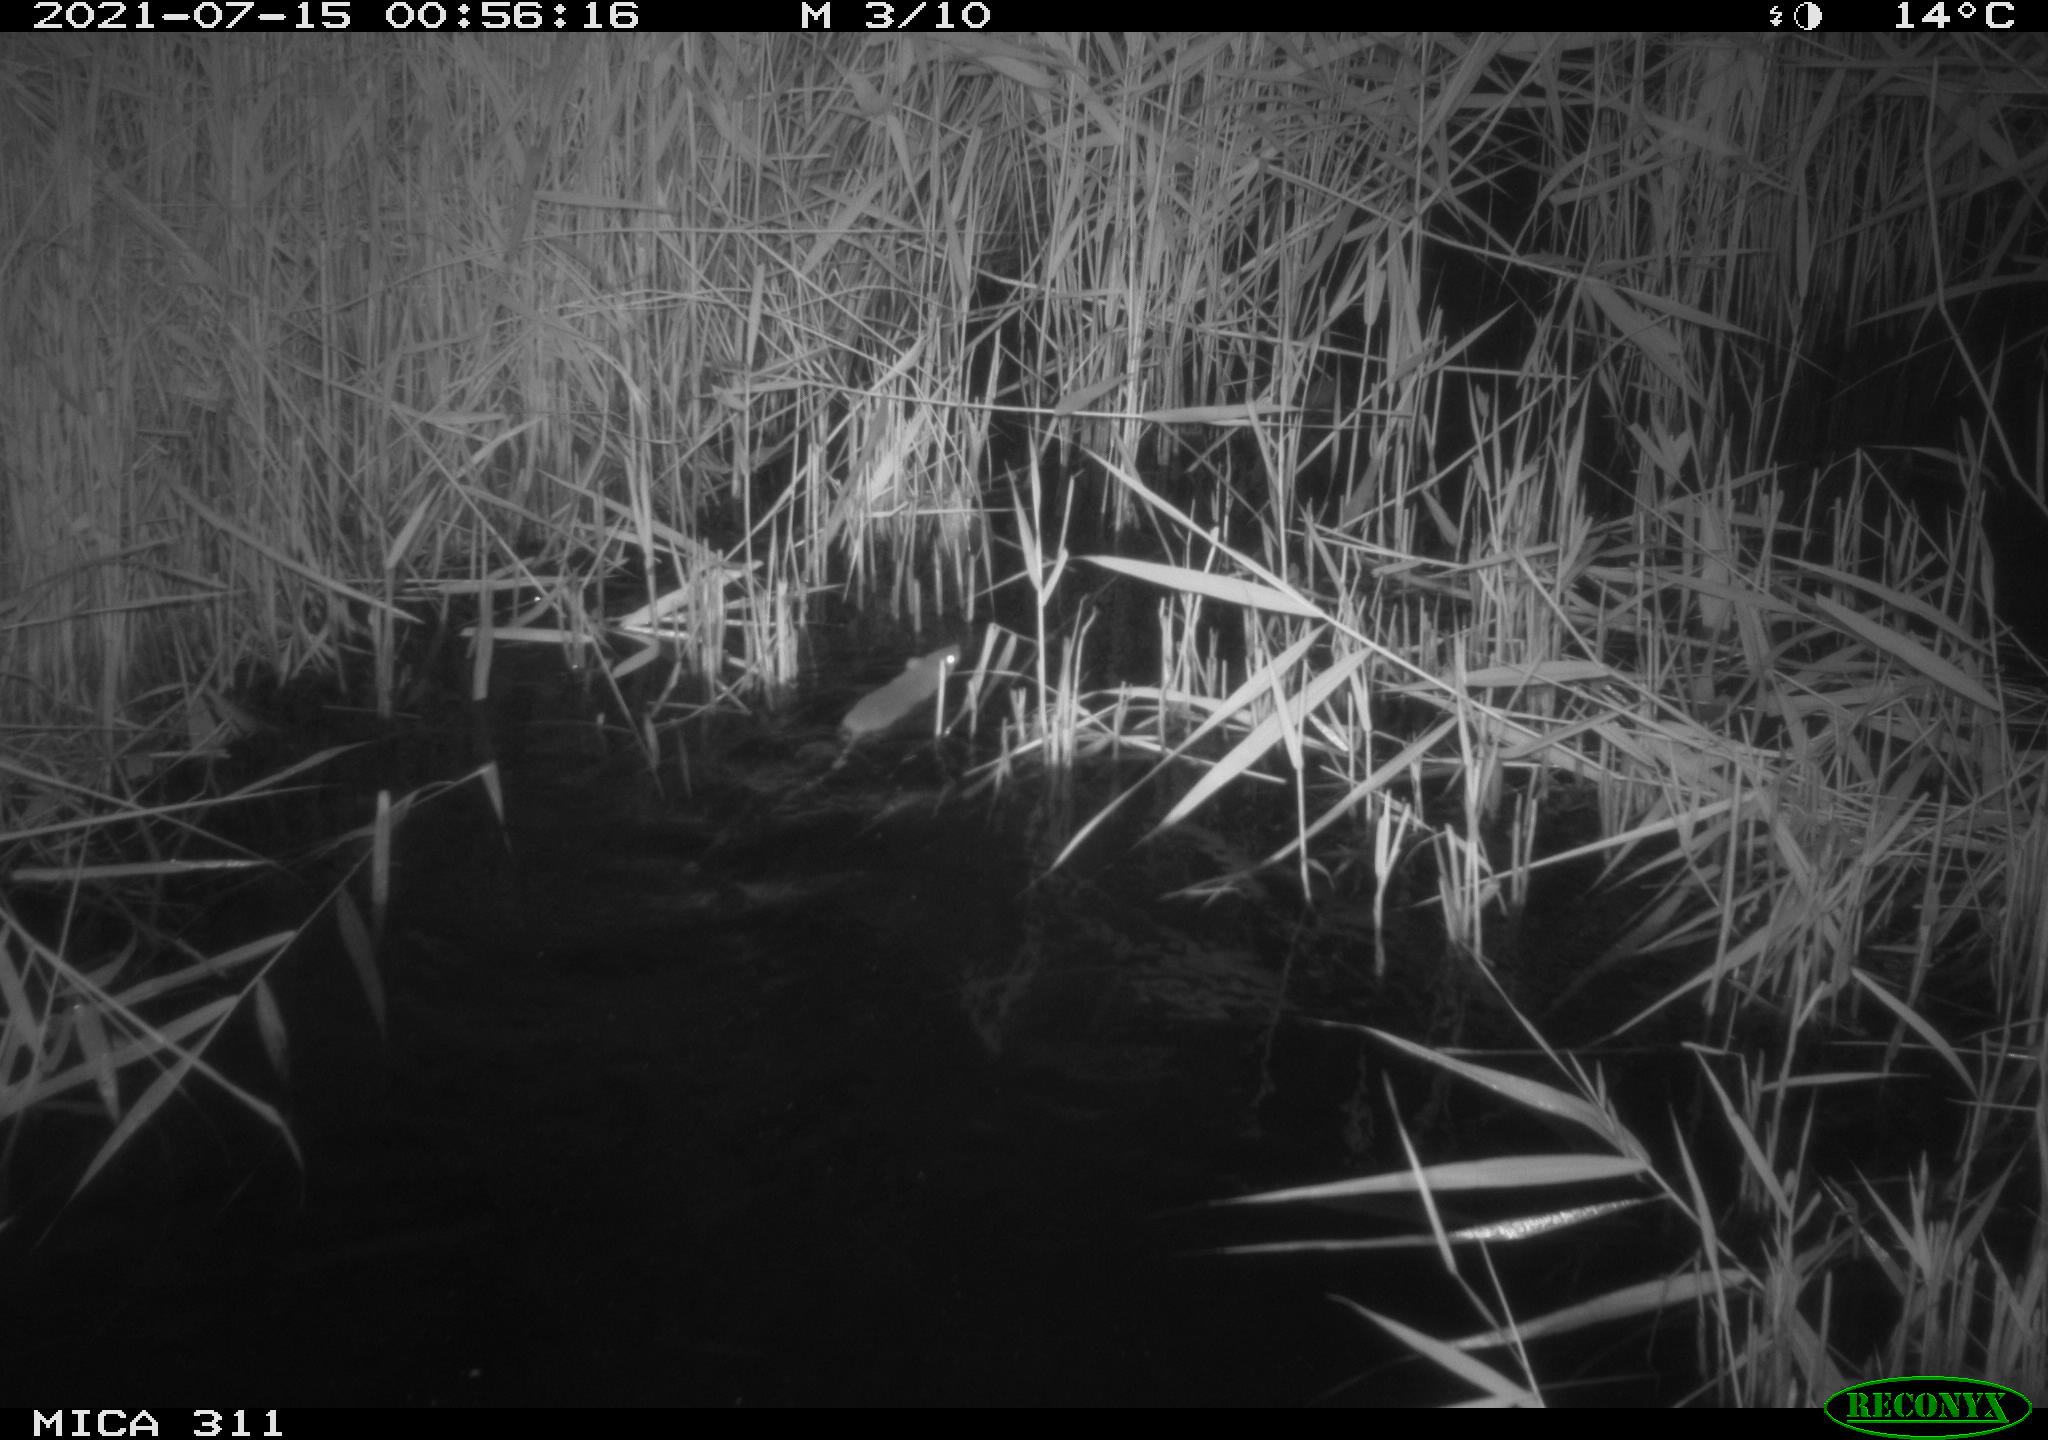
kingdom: Animalia
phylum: Chordata
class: Mammalia
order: Rodentia
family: Muridae
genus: Rattus
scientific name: Rattus norvegicus
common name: Brown rat
